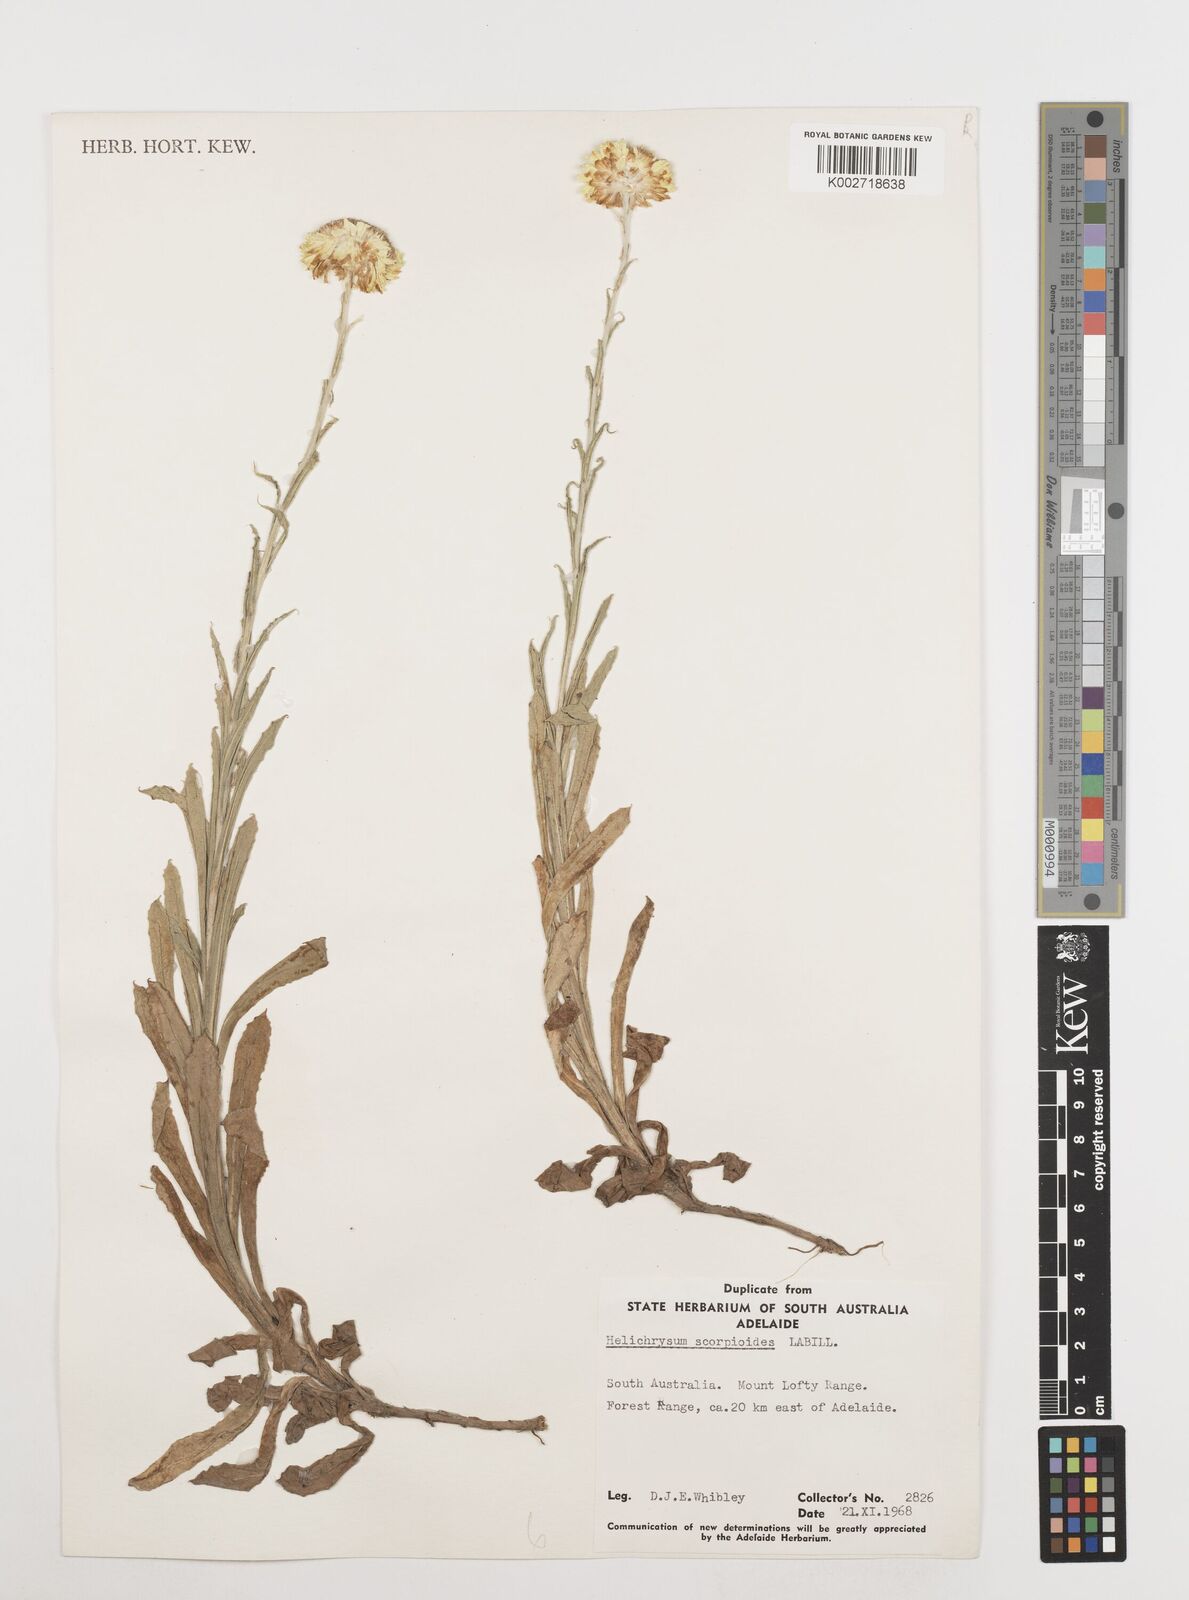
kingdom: Plantae
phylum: Tracheophyta
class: Magnoliopsida
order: Asterales
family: Asteraceae
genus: Coronidium
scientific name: Coronidium scorpioides
